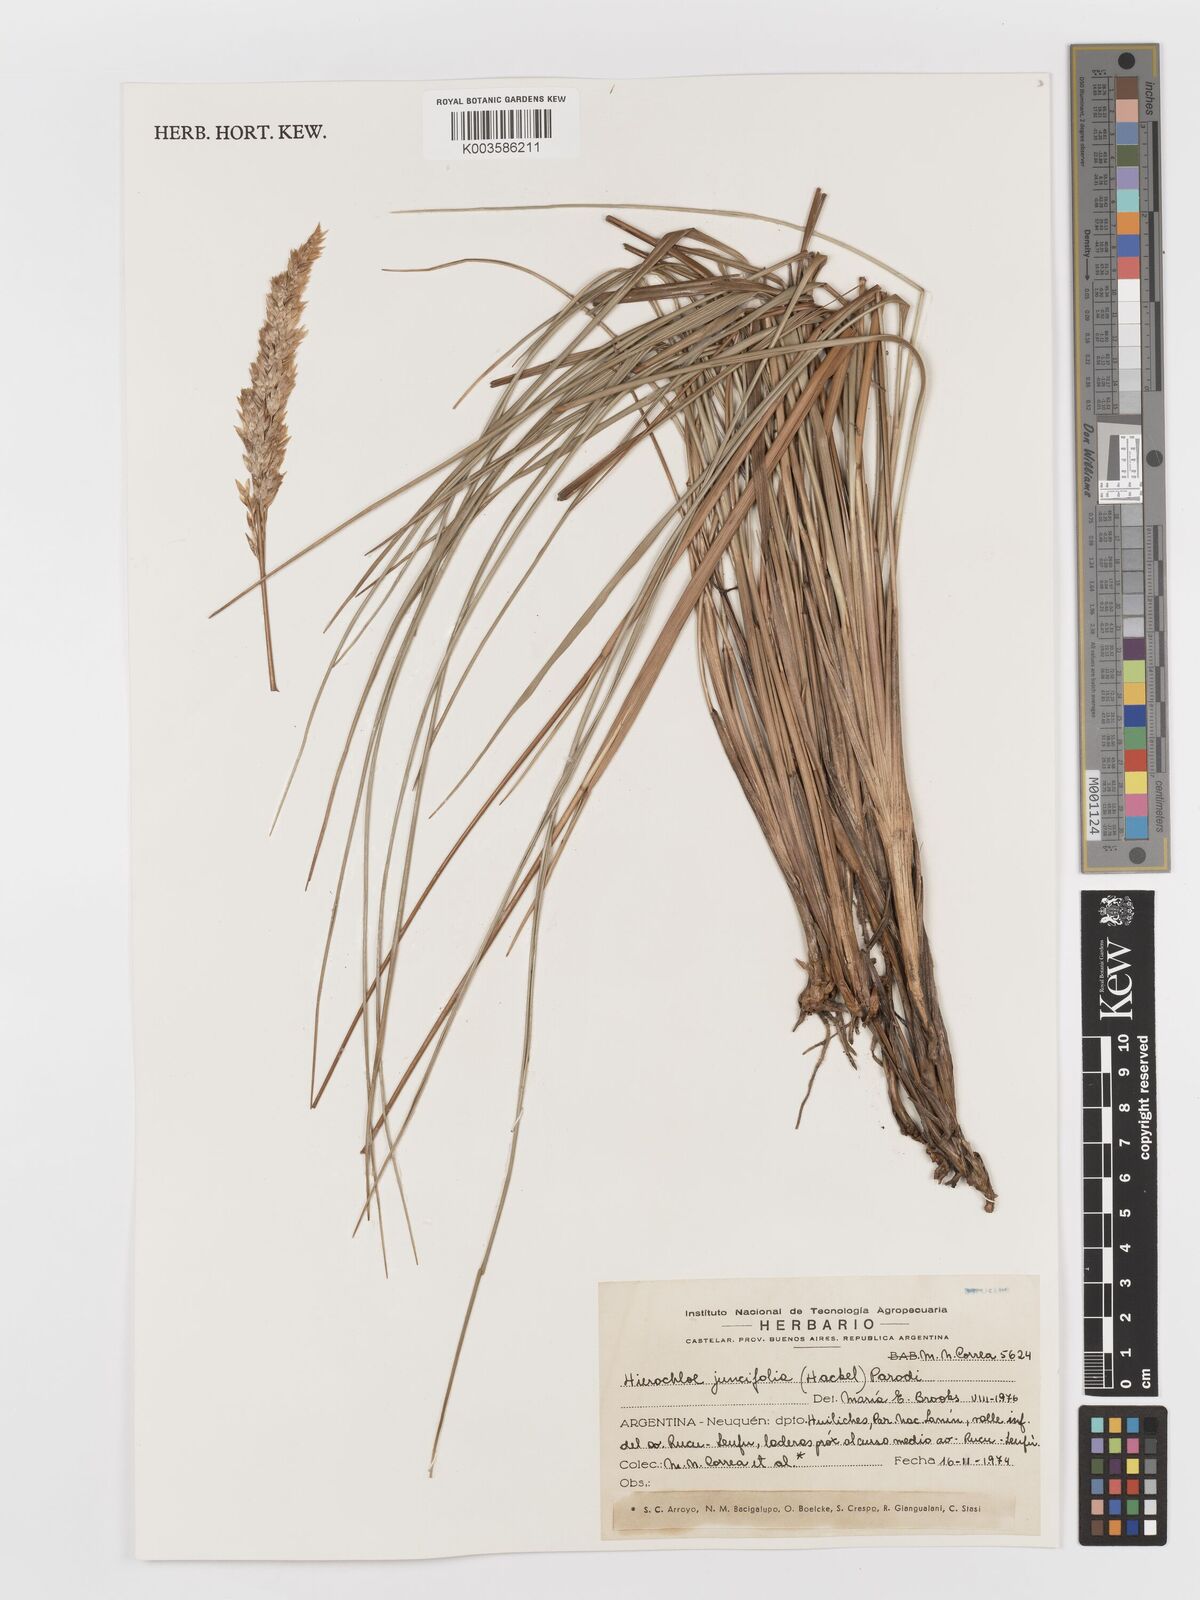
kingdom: Plantae
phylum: Tracheophyta
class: Liliopsida
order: Poales
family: Poaceae
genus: Anthoxanthum
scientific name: Anthoxanthum juncifolium
